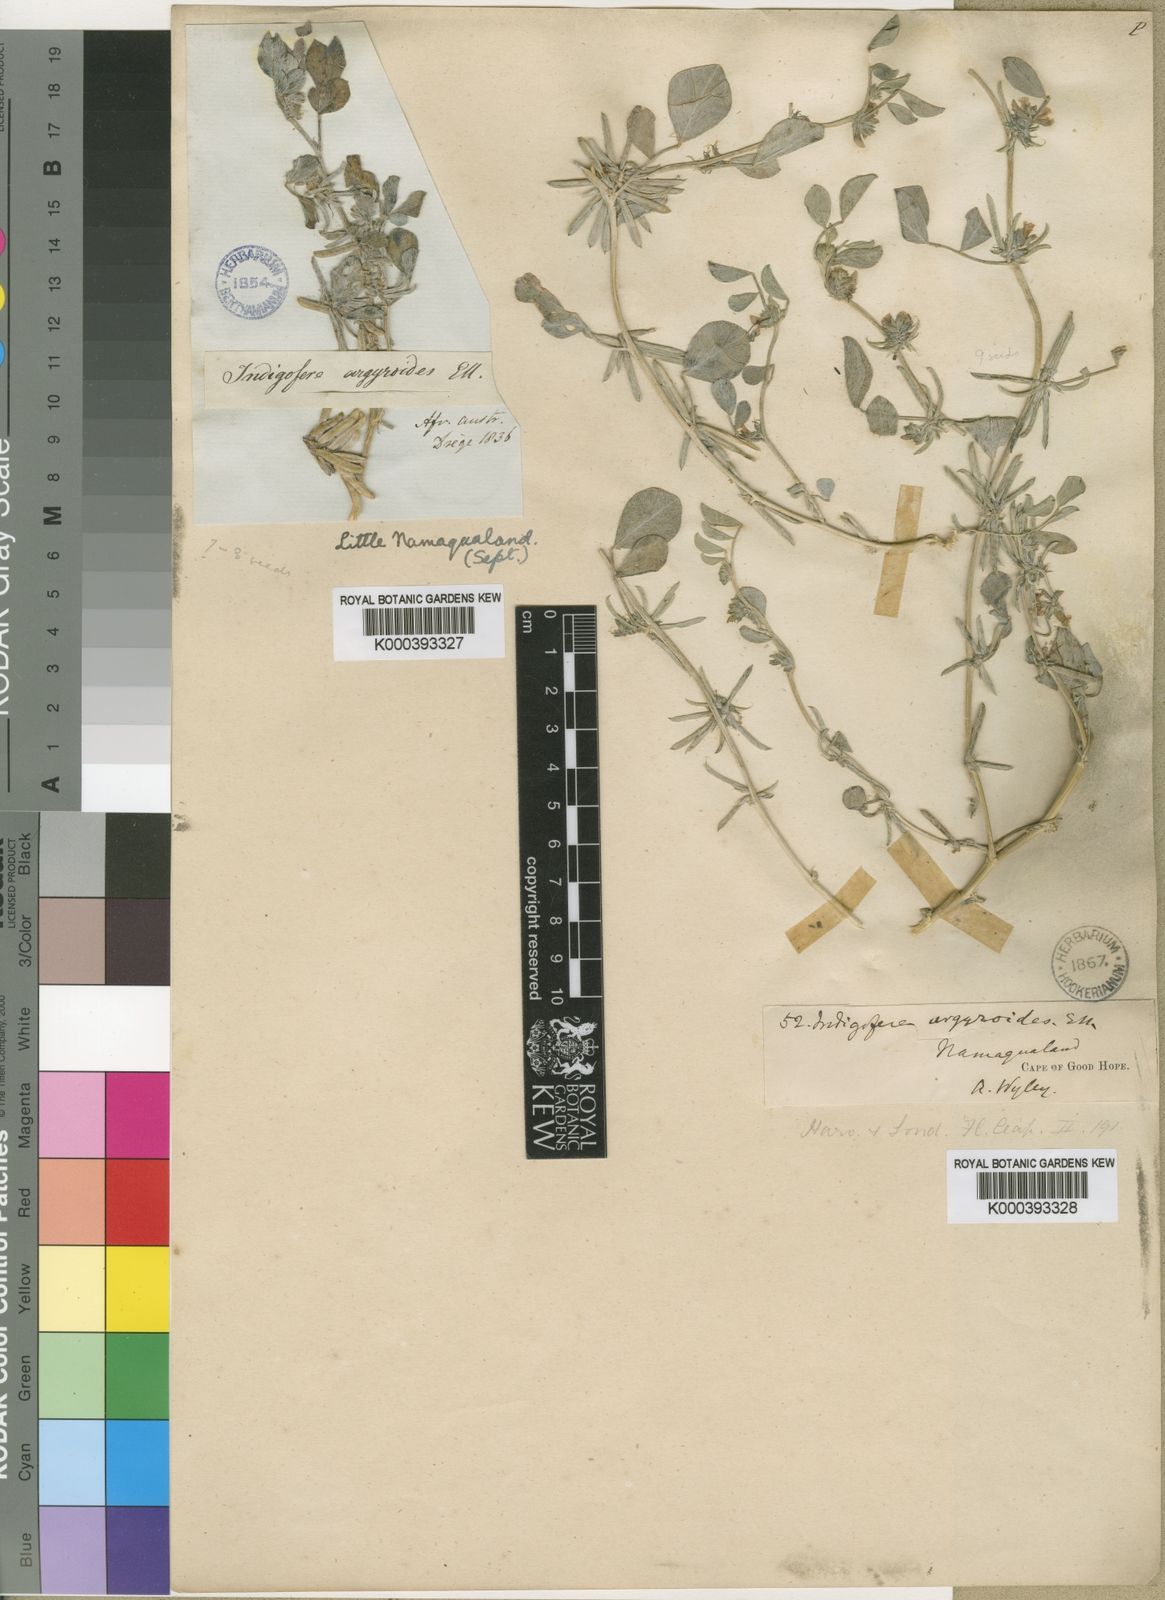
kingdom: Plantae
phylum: Tracheophyta
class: Magnoliopsida
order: Fabales
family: Fabaceae
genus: Indigastrum
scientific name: Indigastrum argyroides
